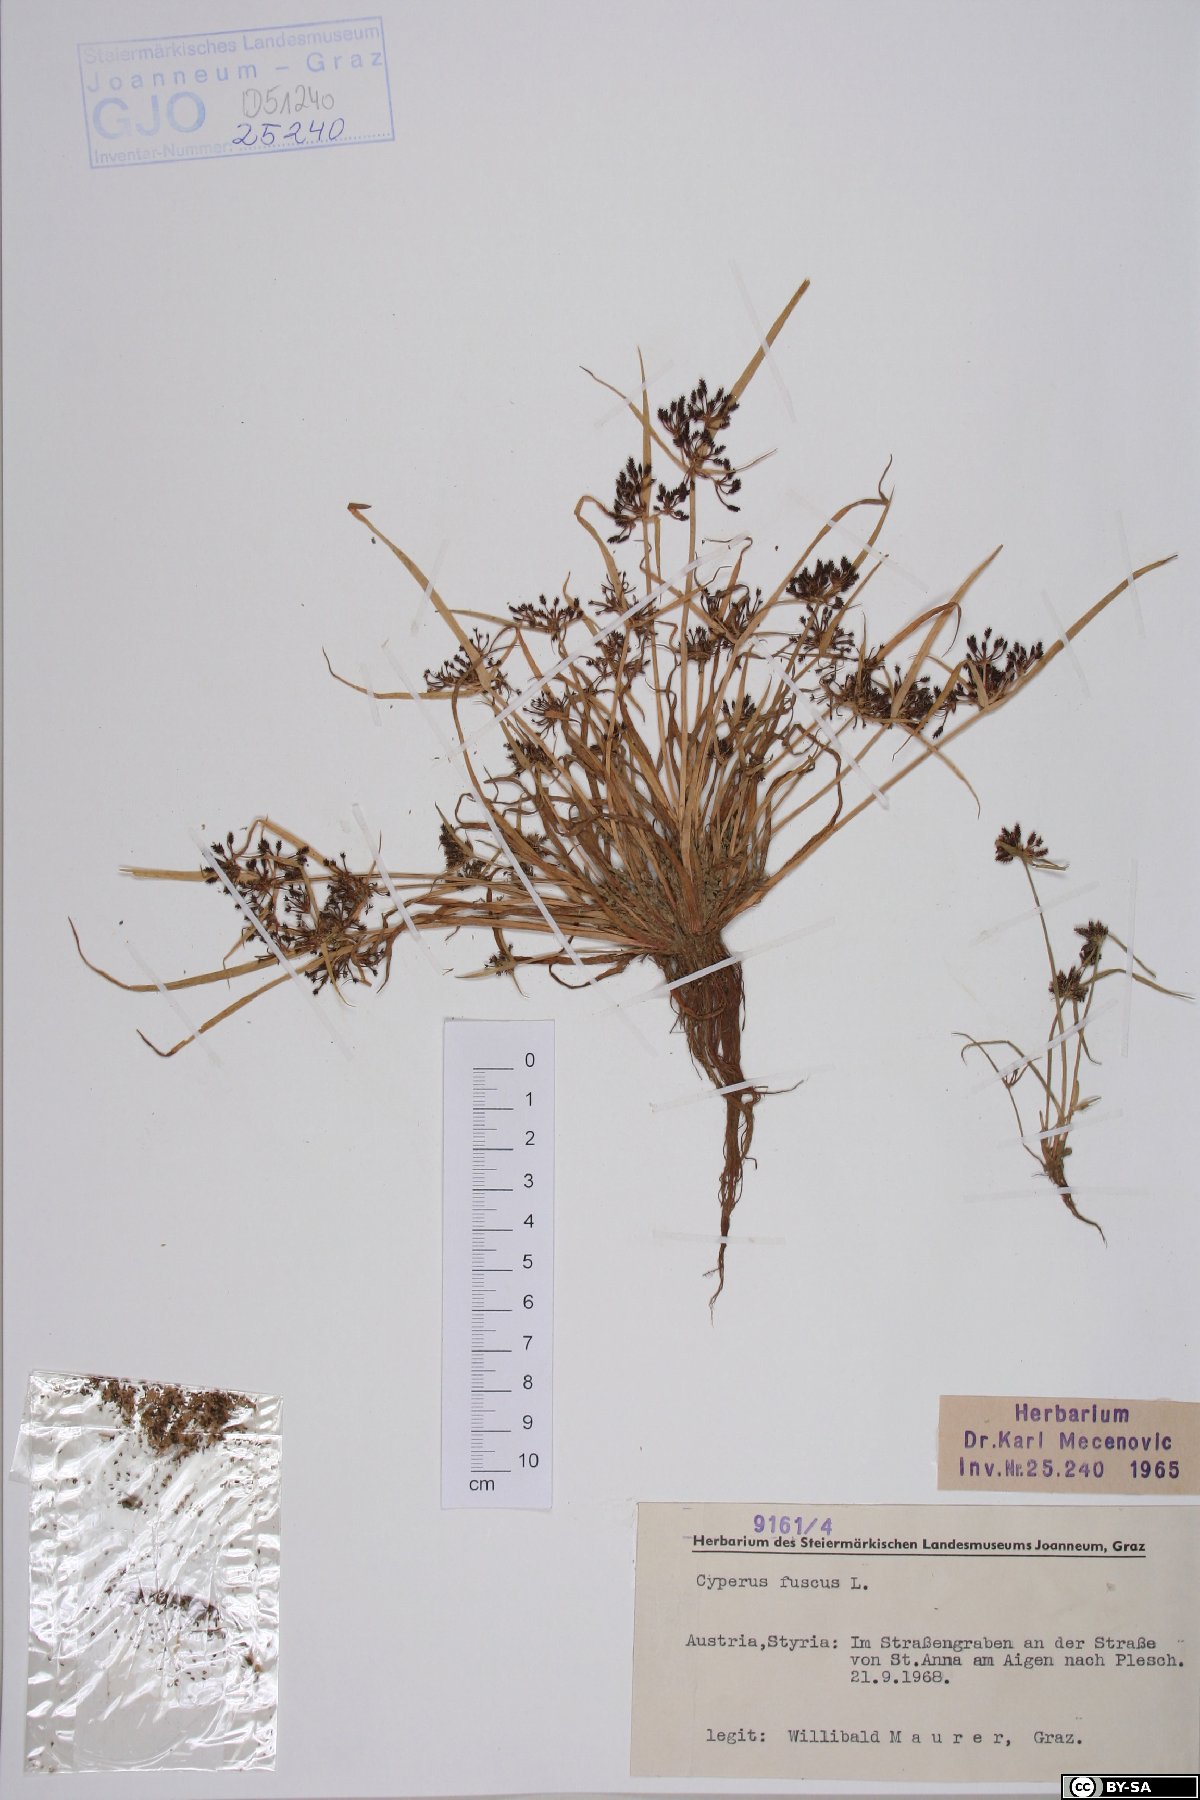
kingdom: Plantae
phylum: Tracheophyta
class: Liliopsida
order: Poales
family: Cyperaceae
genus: Cyperus
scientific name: Cyperus fuscus
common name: Brown galingale
